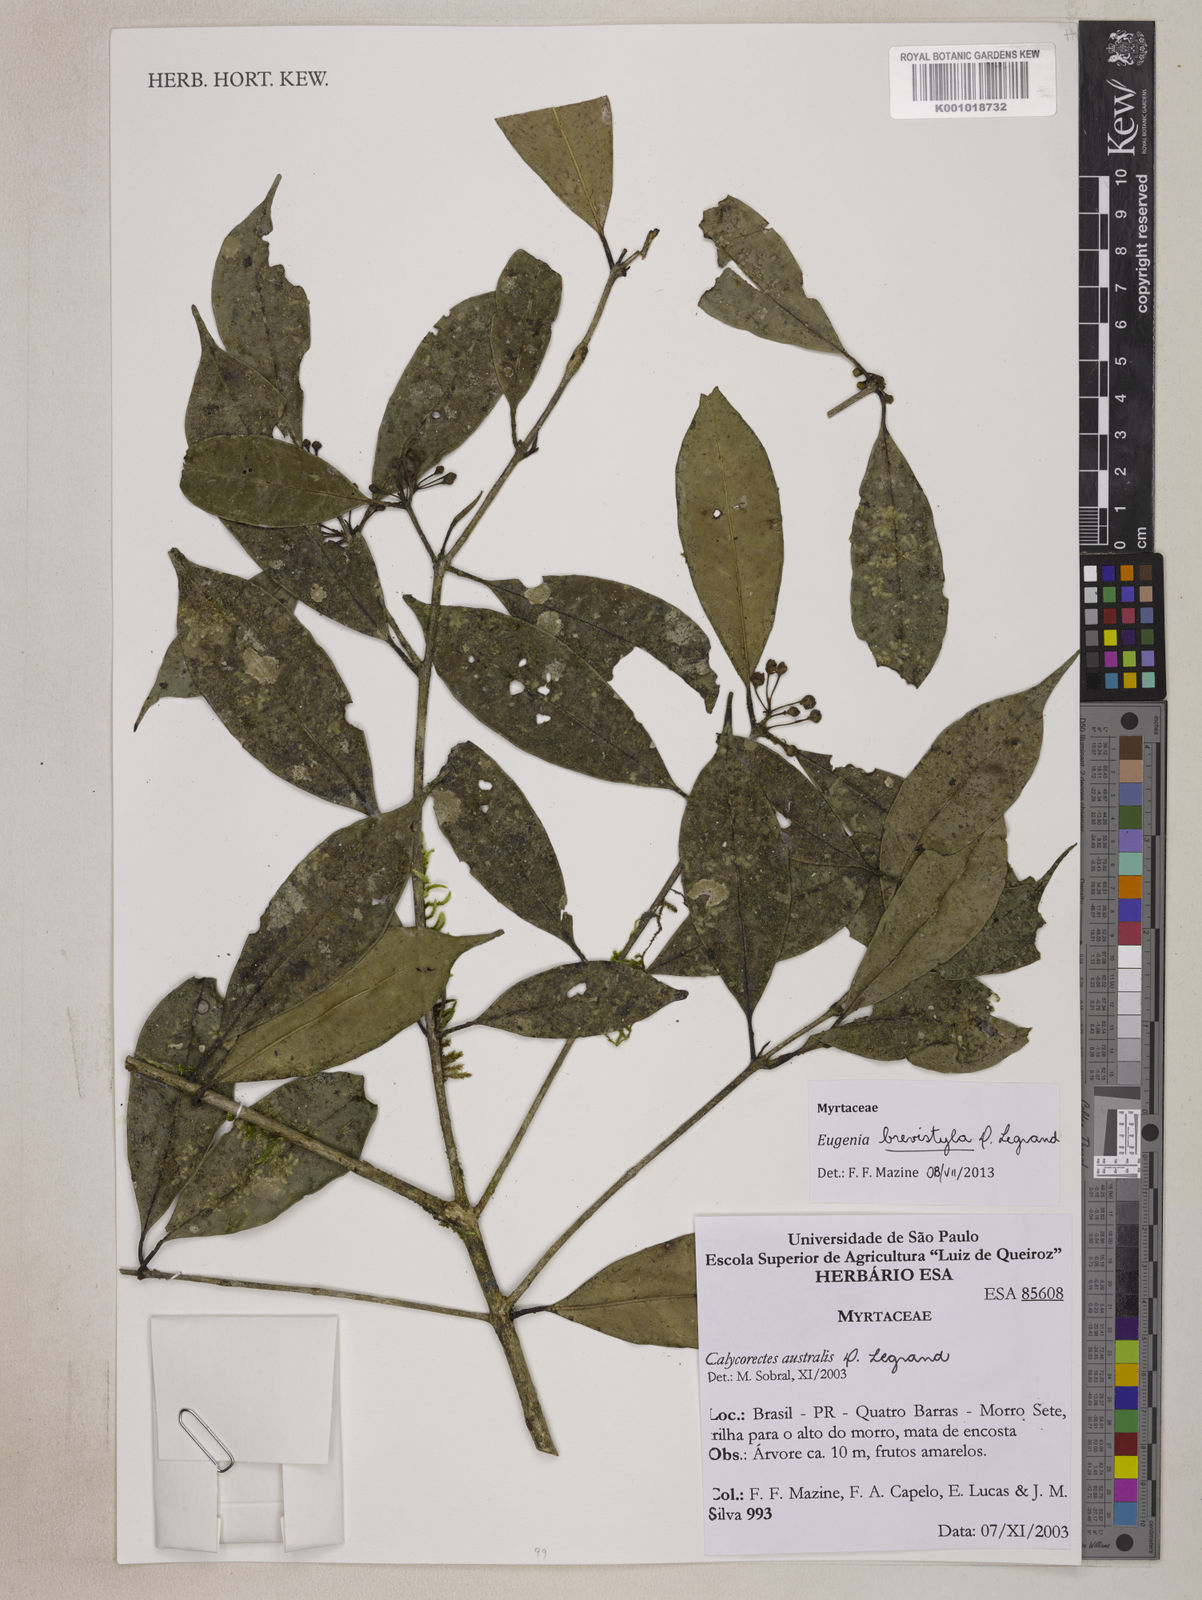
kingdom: Plantae
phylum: Tracheophyta
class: Magnoliopsida
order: Myrtales
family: Myrtaceae
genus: Eugenia
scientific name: Eugenia brevistyla
